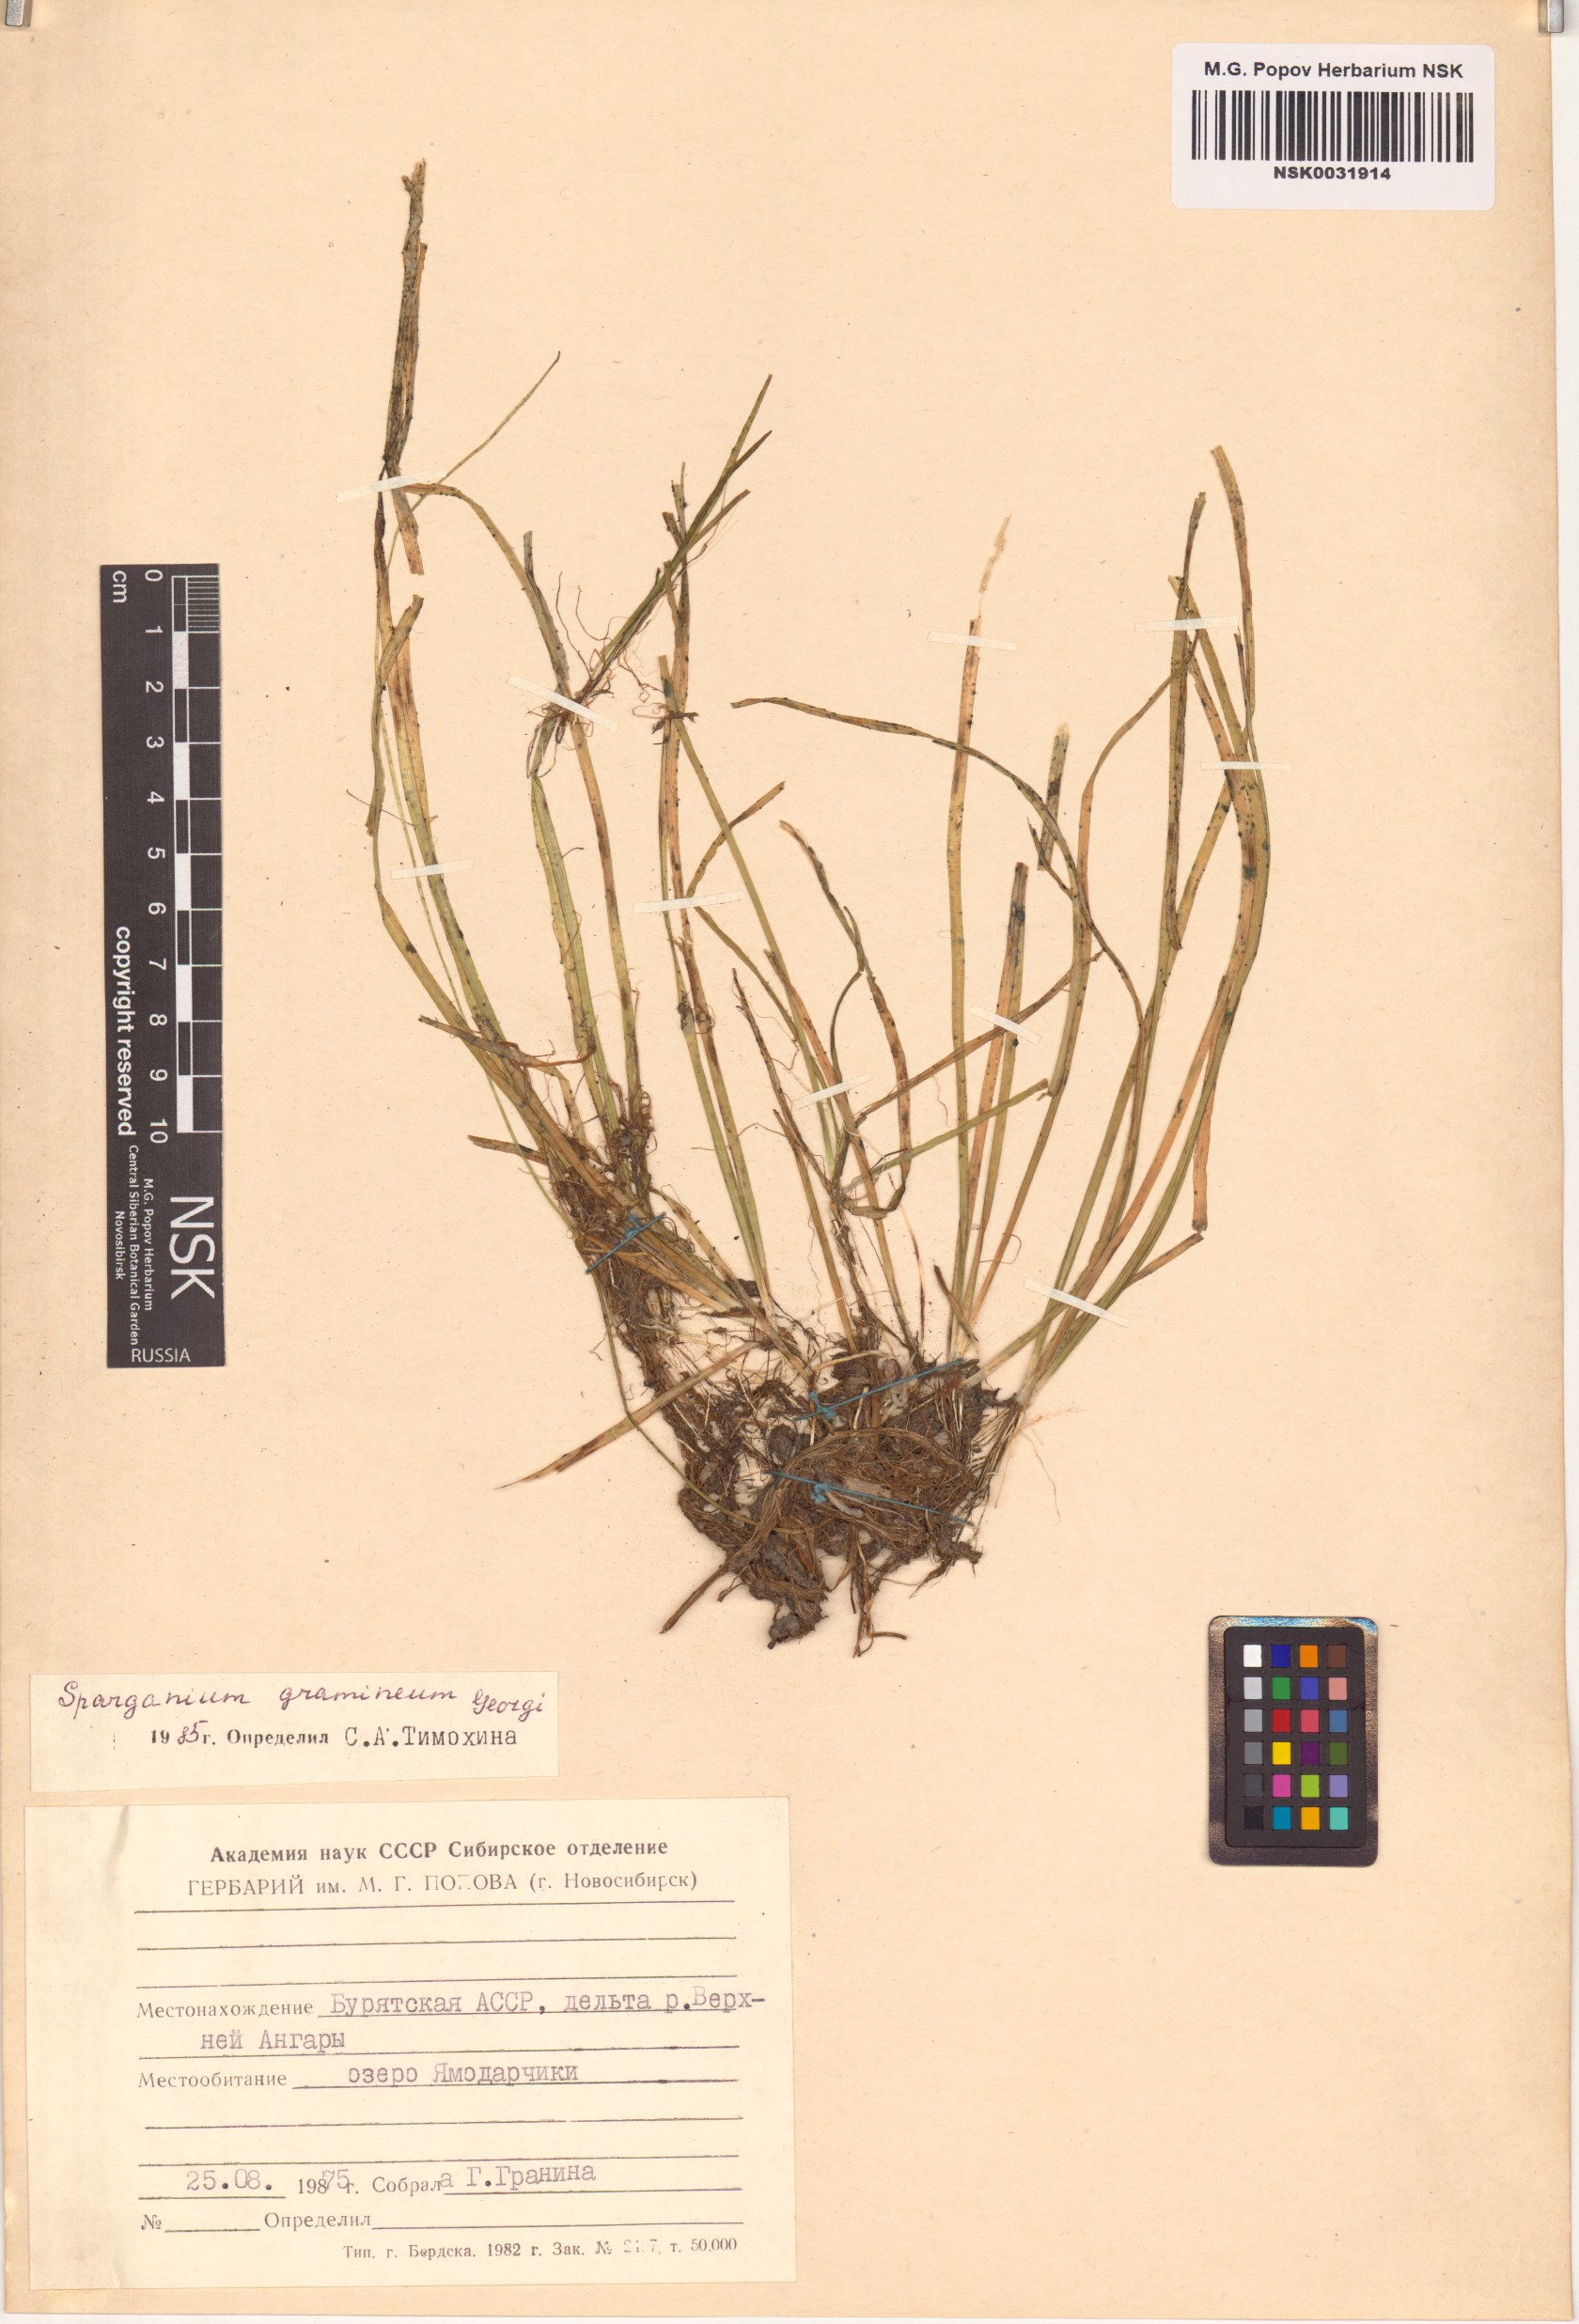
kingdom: Plantae
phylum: Tracheophyta
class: Liliopsida
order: Poales
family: Typhaceae
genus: Sparganium
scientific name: Sparganium gramineum
